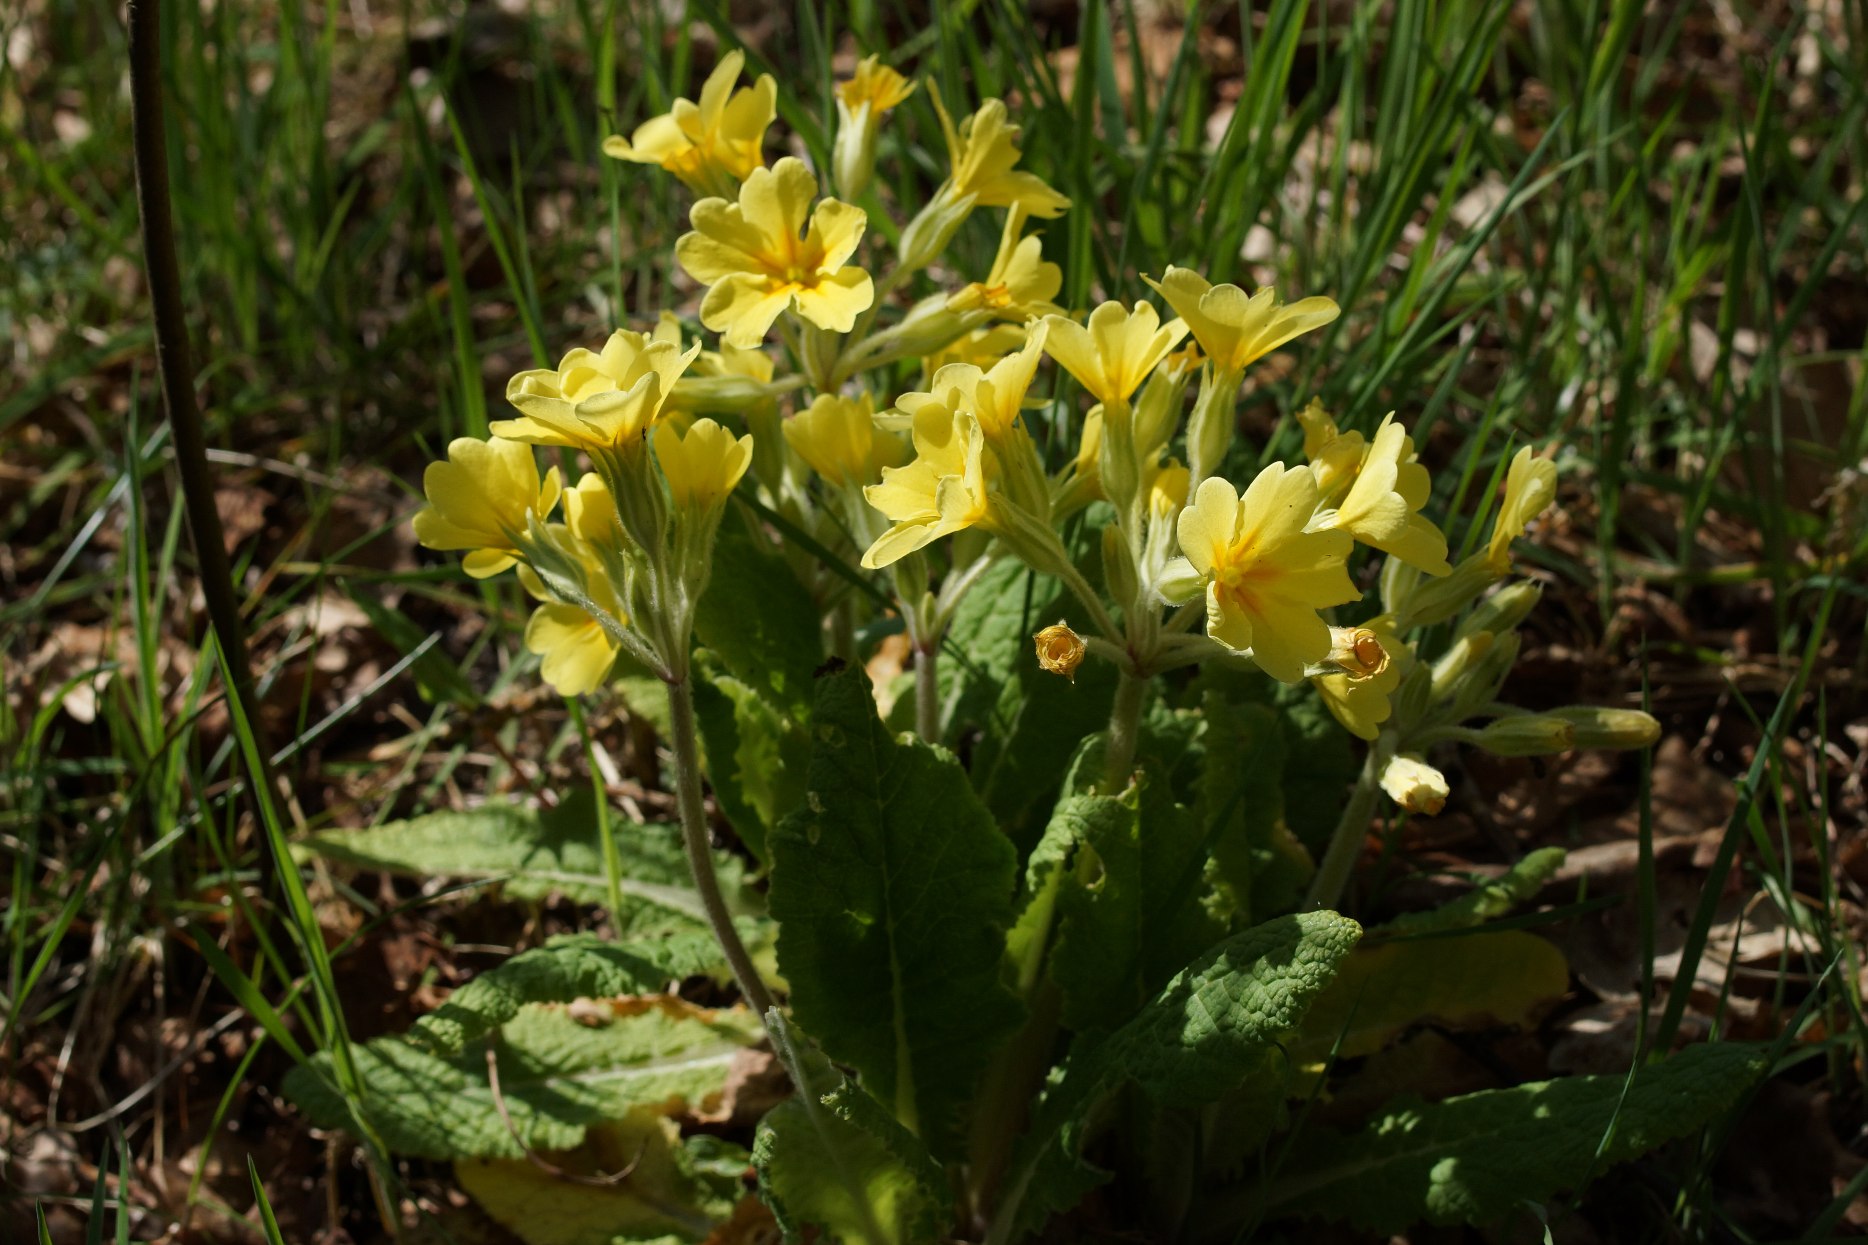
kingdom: Plantae
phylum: Tracheophyta
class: Magnoliopsida
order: Ericales
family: Primulaceae
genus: Primula
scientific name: Primula
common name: Fladkravet kodriver × hulkravet kodriver
